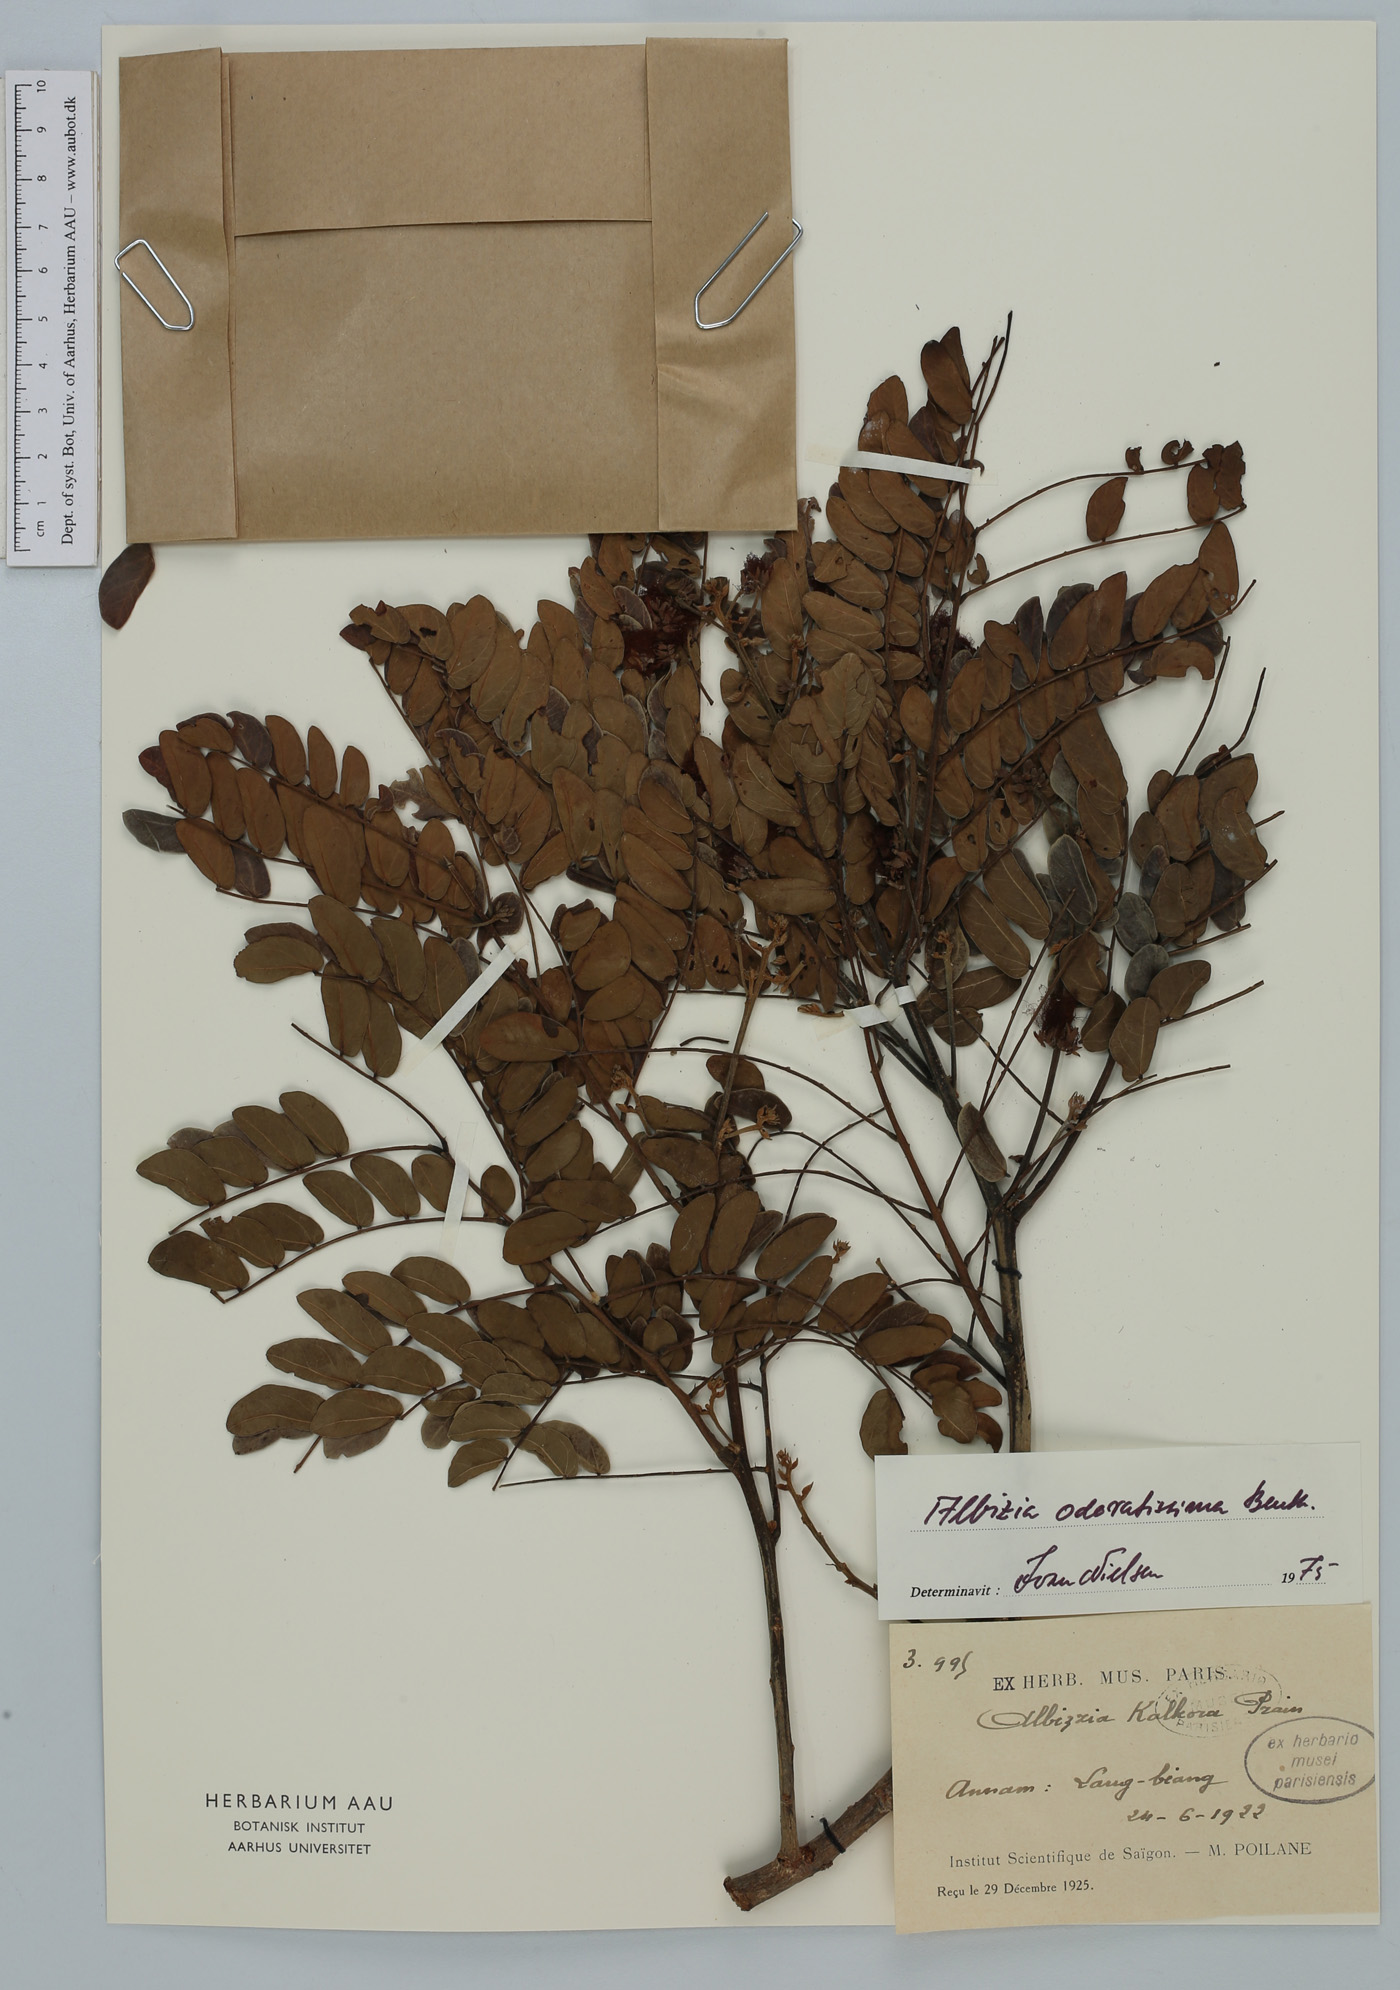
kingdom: Plantae
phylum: Tracheophyta
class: Magnoliopsida
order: Fabales
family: Fabaceae
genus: Albizia
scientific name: Albizia odoratissima
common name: Ceylon rosewood
